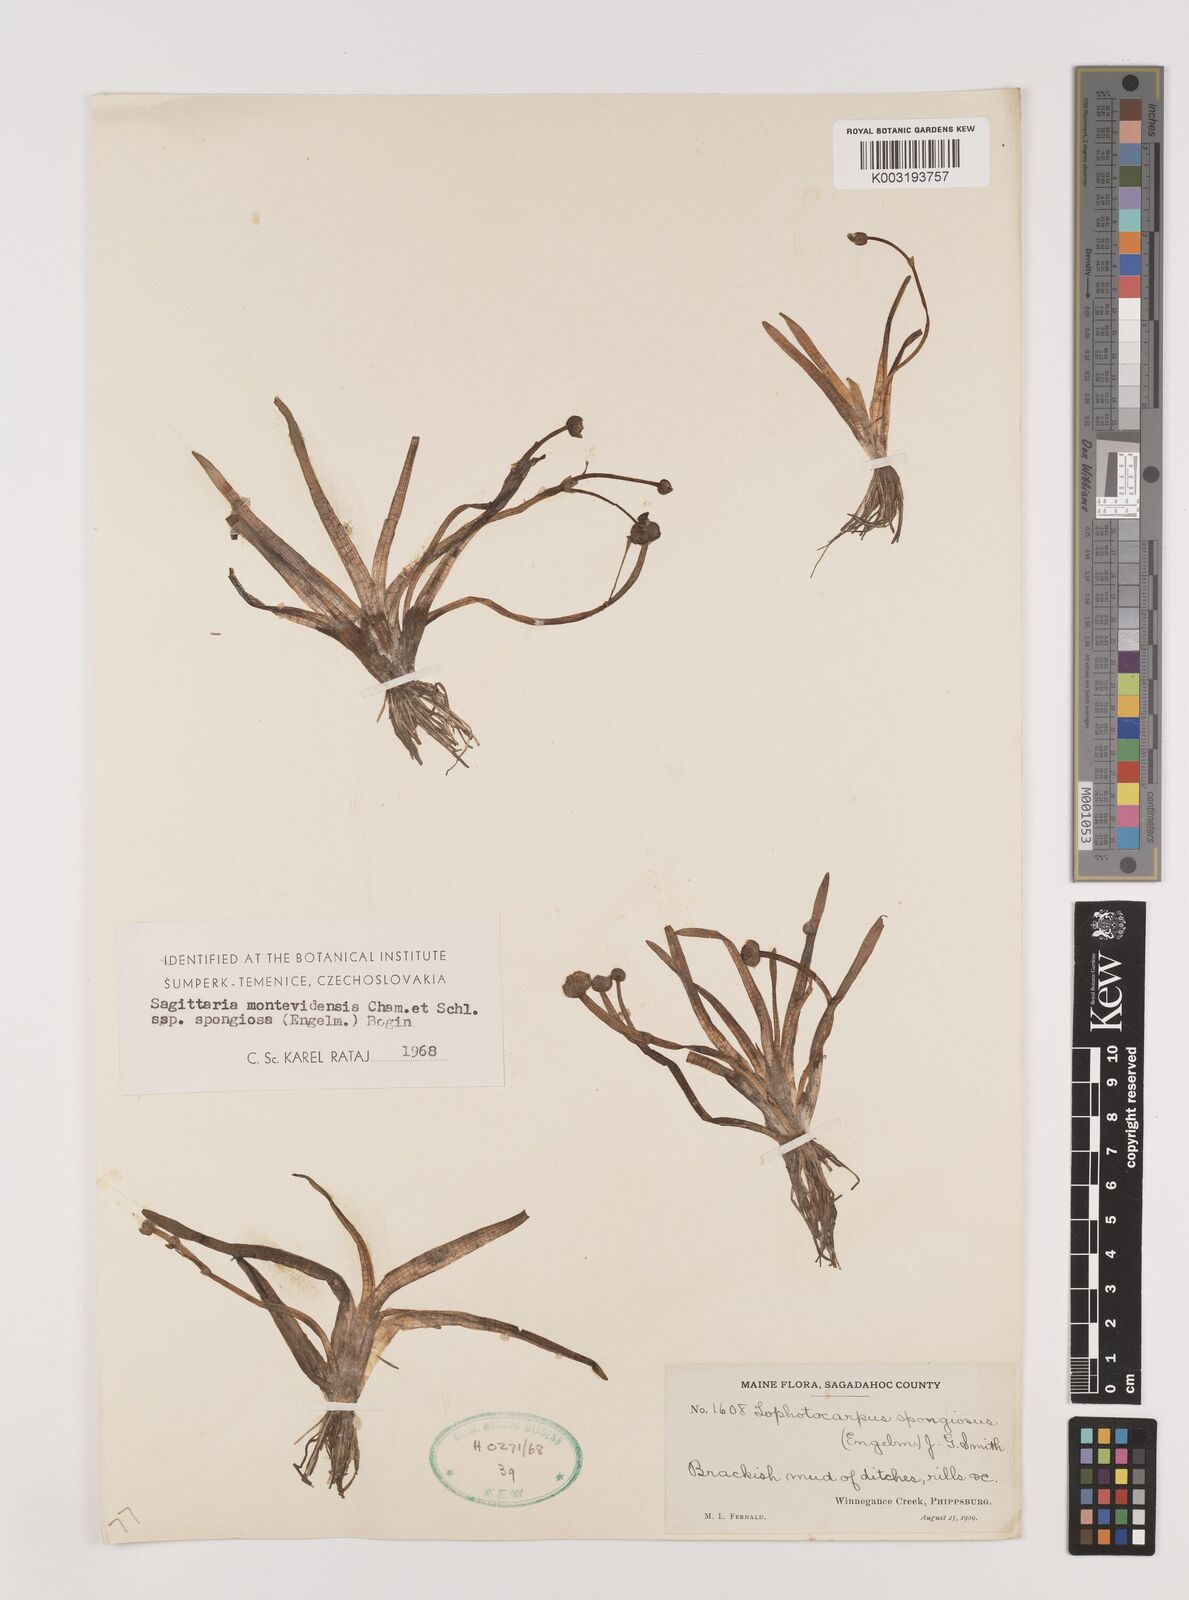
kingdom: Plantae
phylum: Tracheophyta
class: Liliopsida
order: Alismatales
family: Alismataceae
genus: Sagittaria
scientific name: Sagittaria montevidensis
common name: Giant arrowhead
